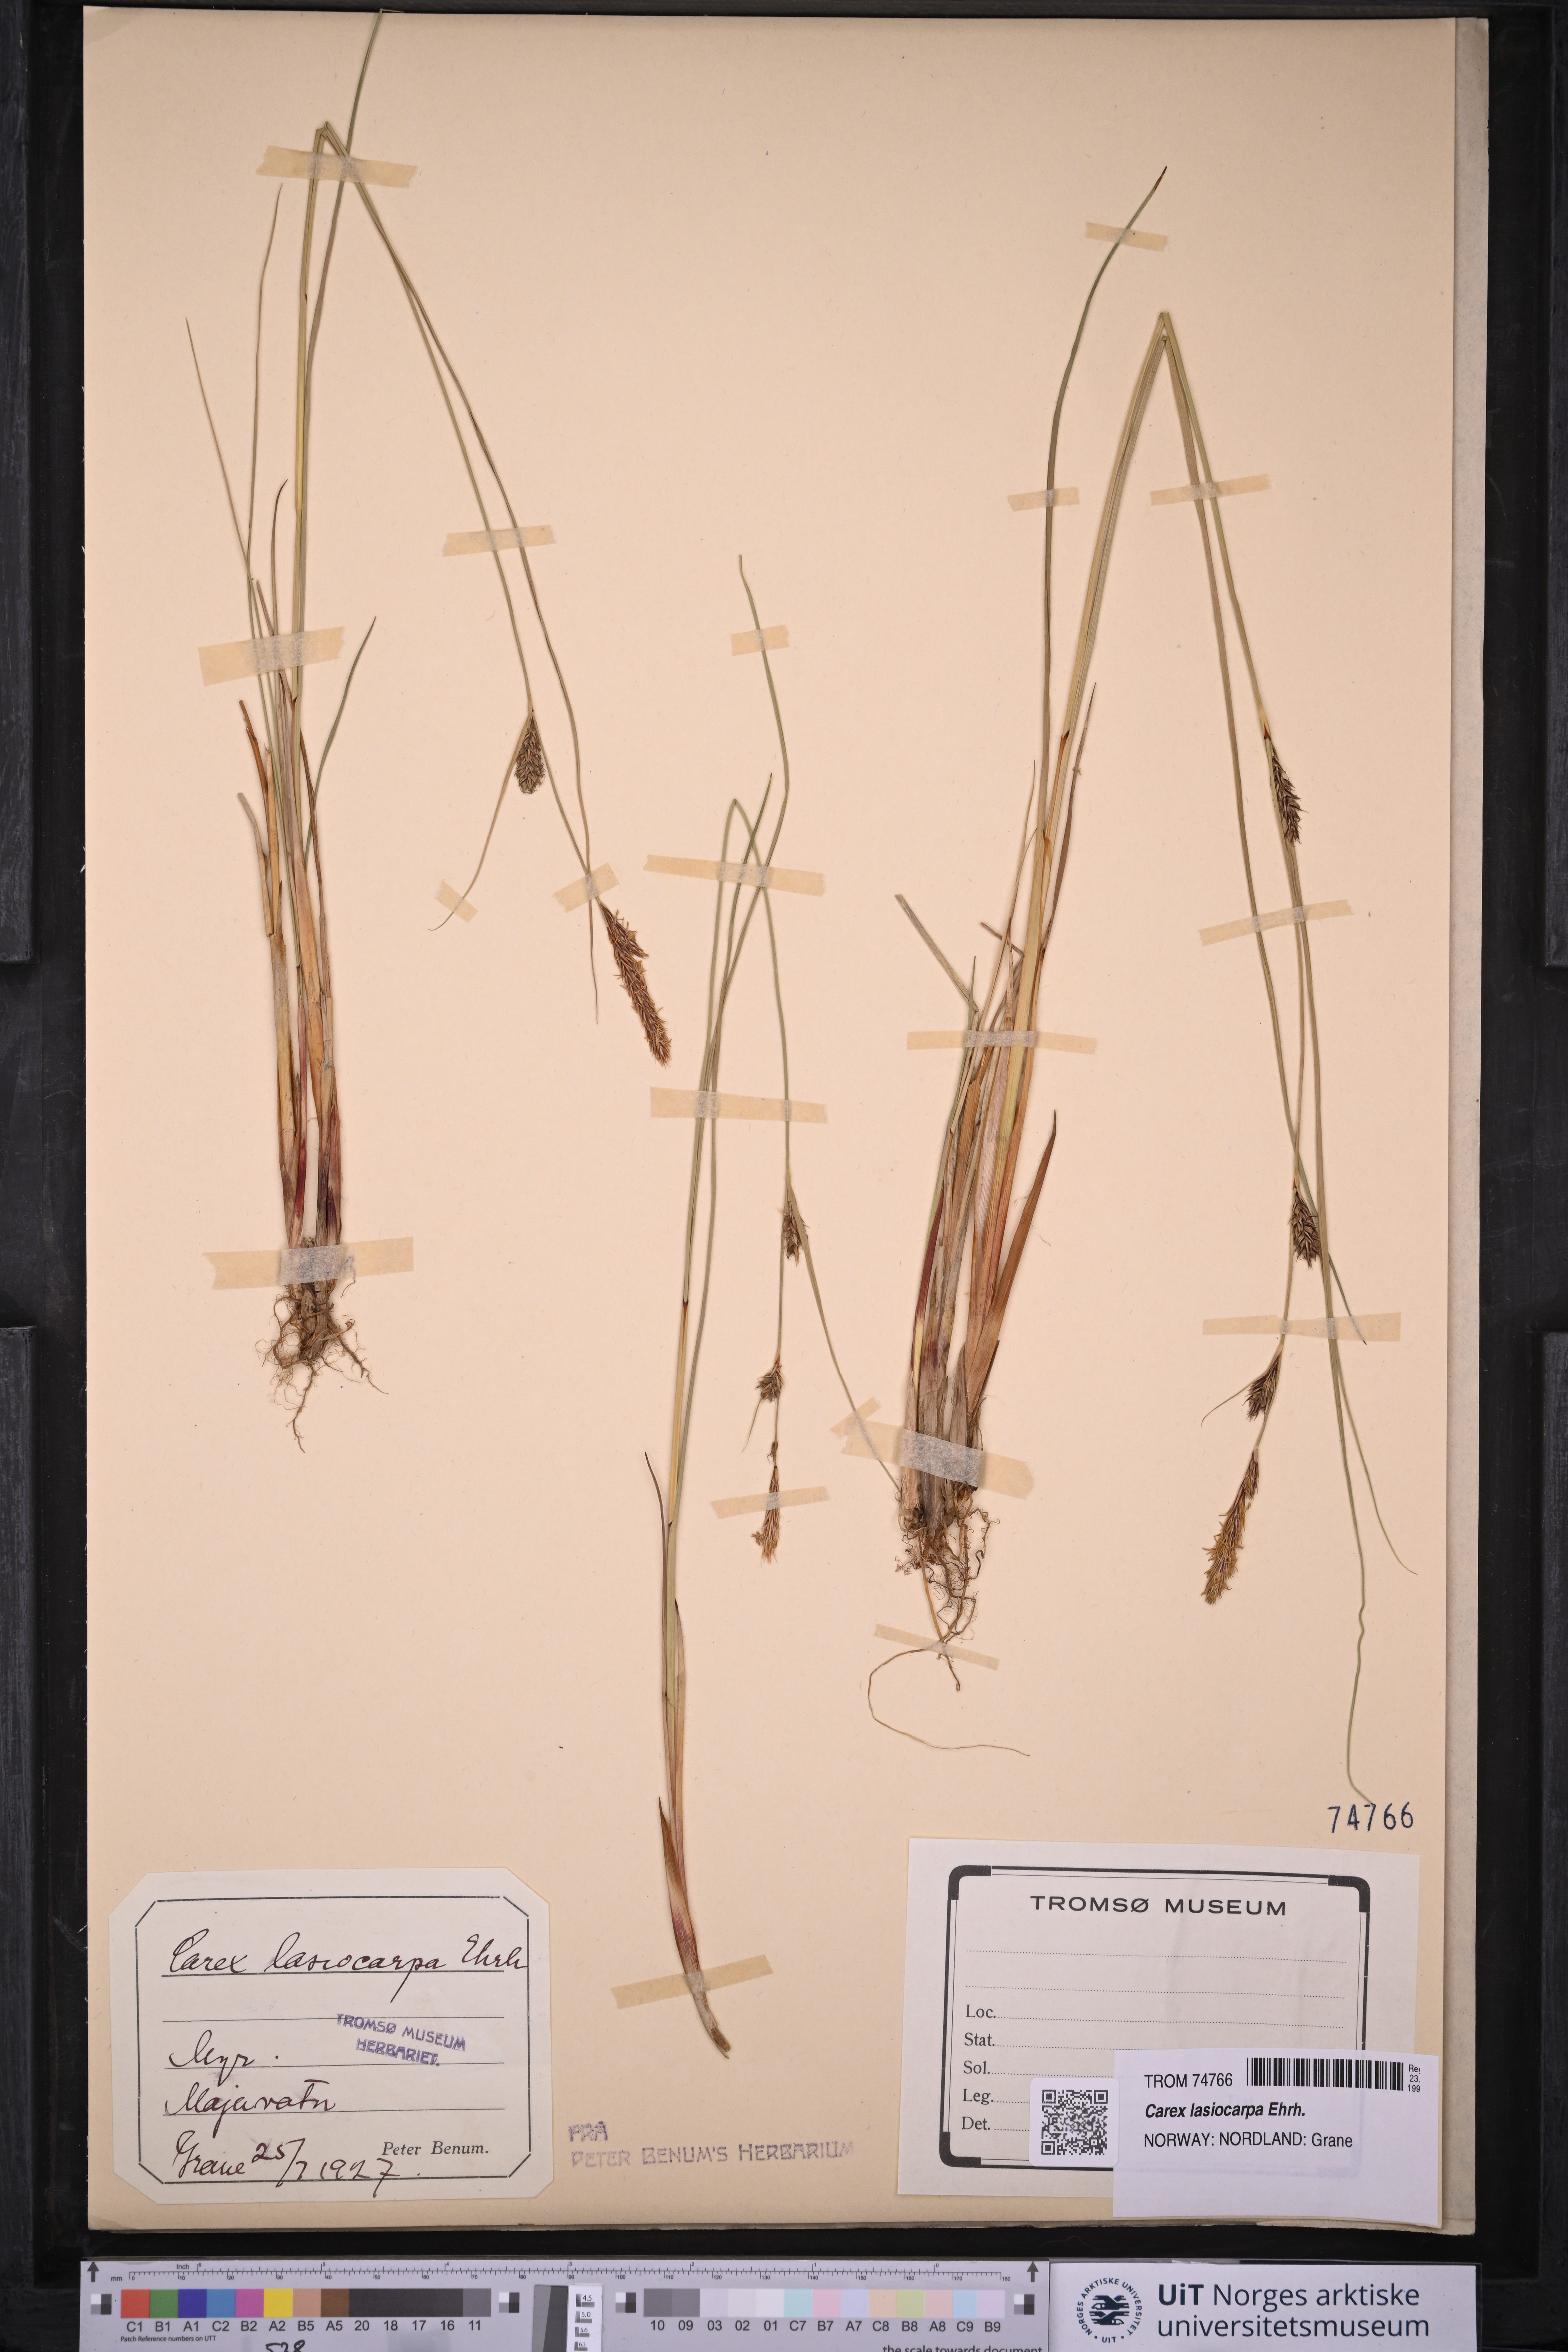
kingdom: Plantae
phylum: Tracheophyta
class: Liliopsida
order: Poales
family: Cyperaceae
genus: Carex
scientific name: Carex lasiocarpa
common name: Slender sedge
